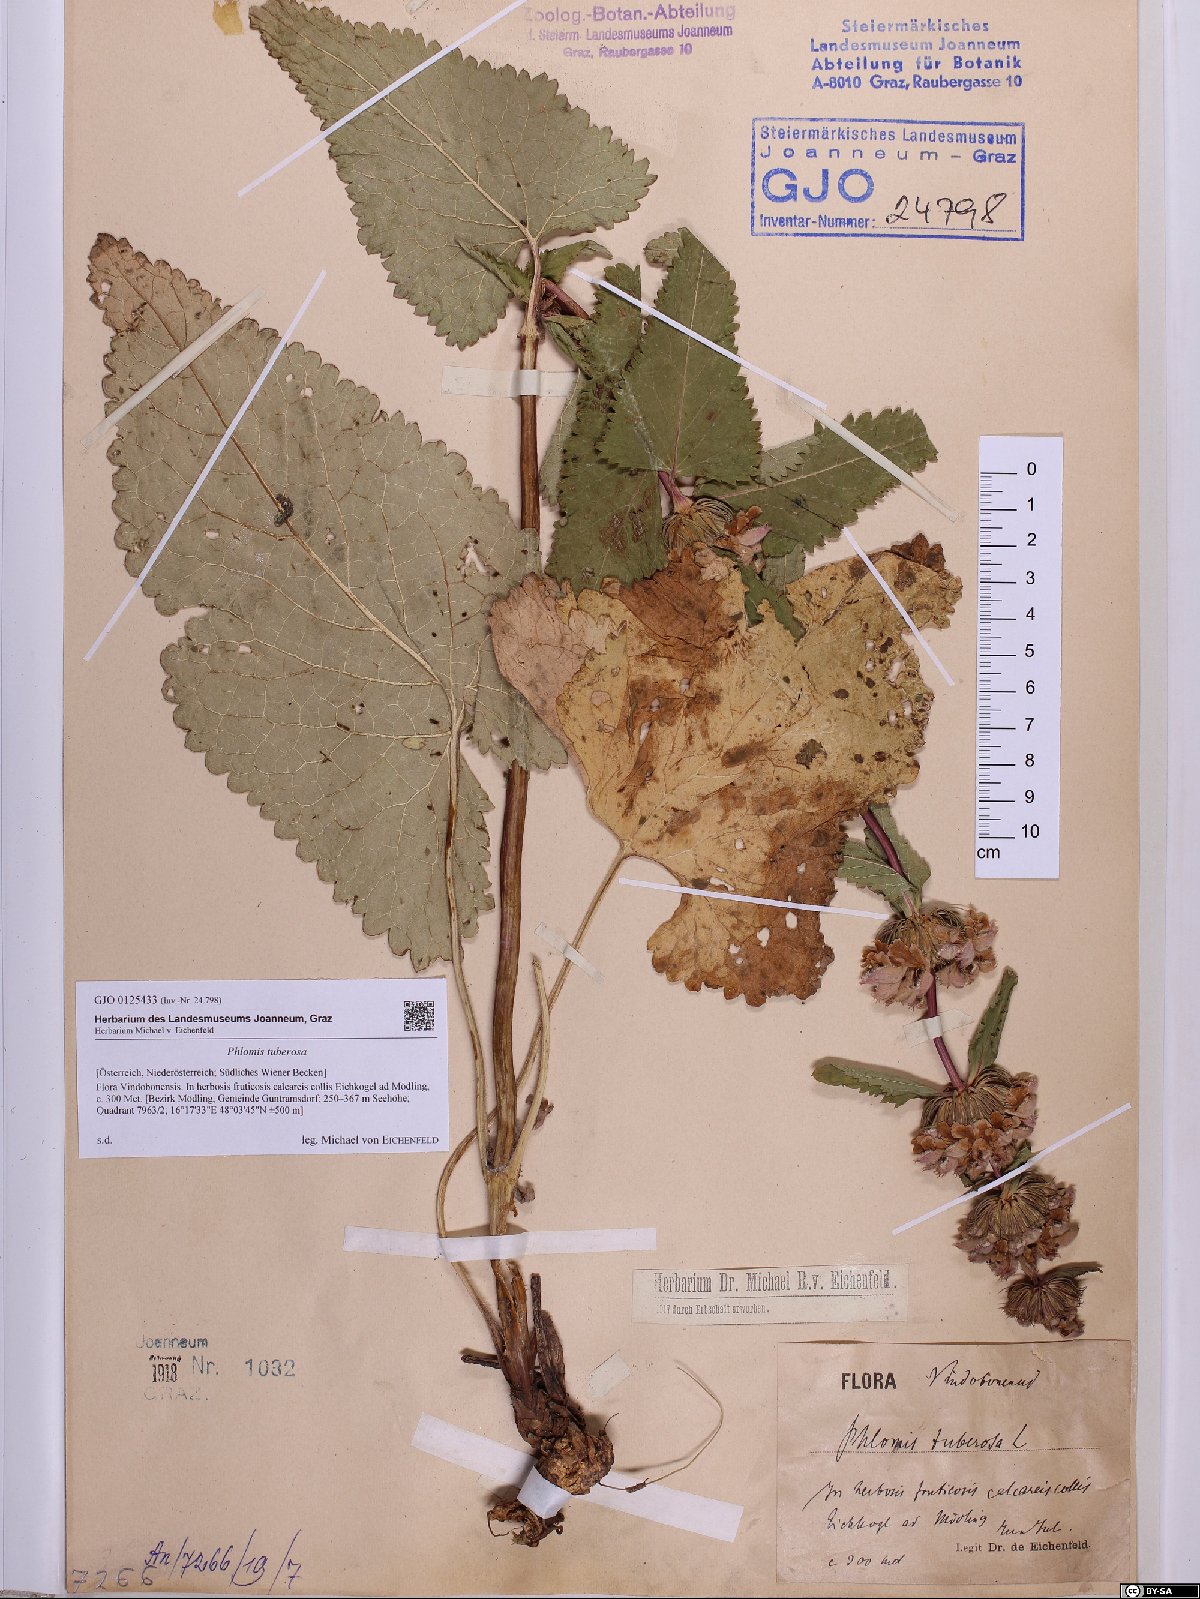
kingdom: Plantae
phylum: Tracheophyta
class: Magnoliopsida
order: Lamiales
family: Lamiaceae
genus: Phlomoides
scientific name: Phlomoides tuberosa
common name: Tuberous jerusalem sage
